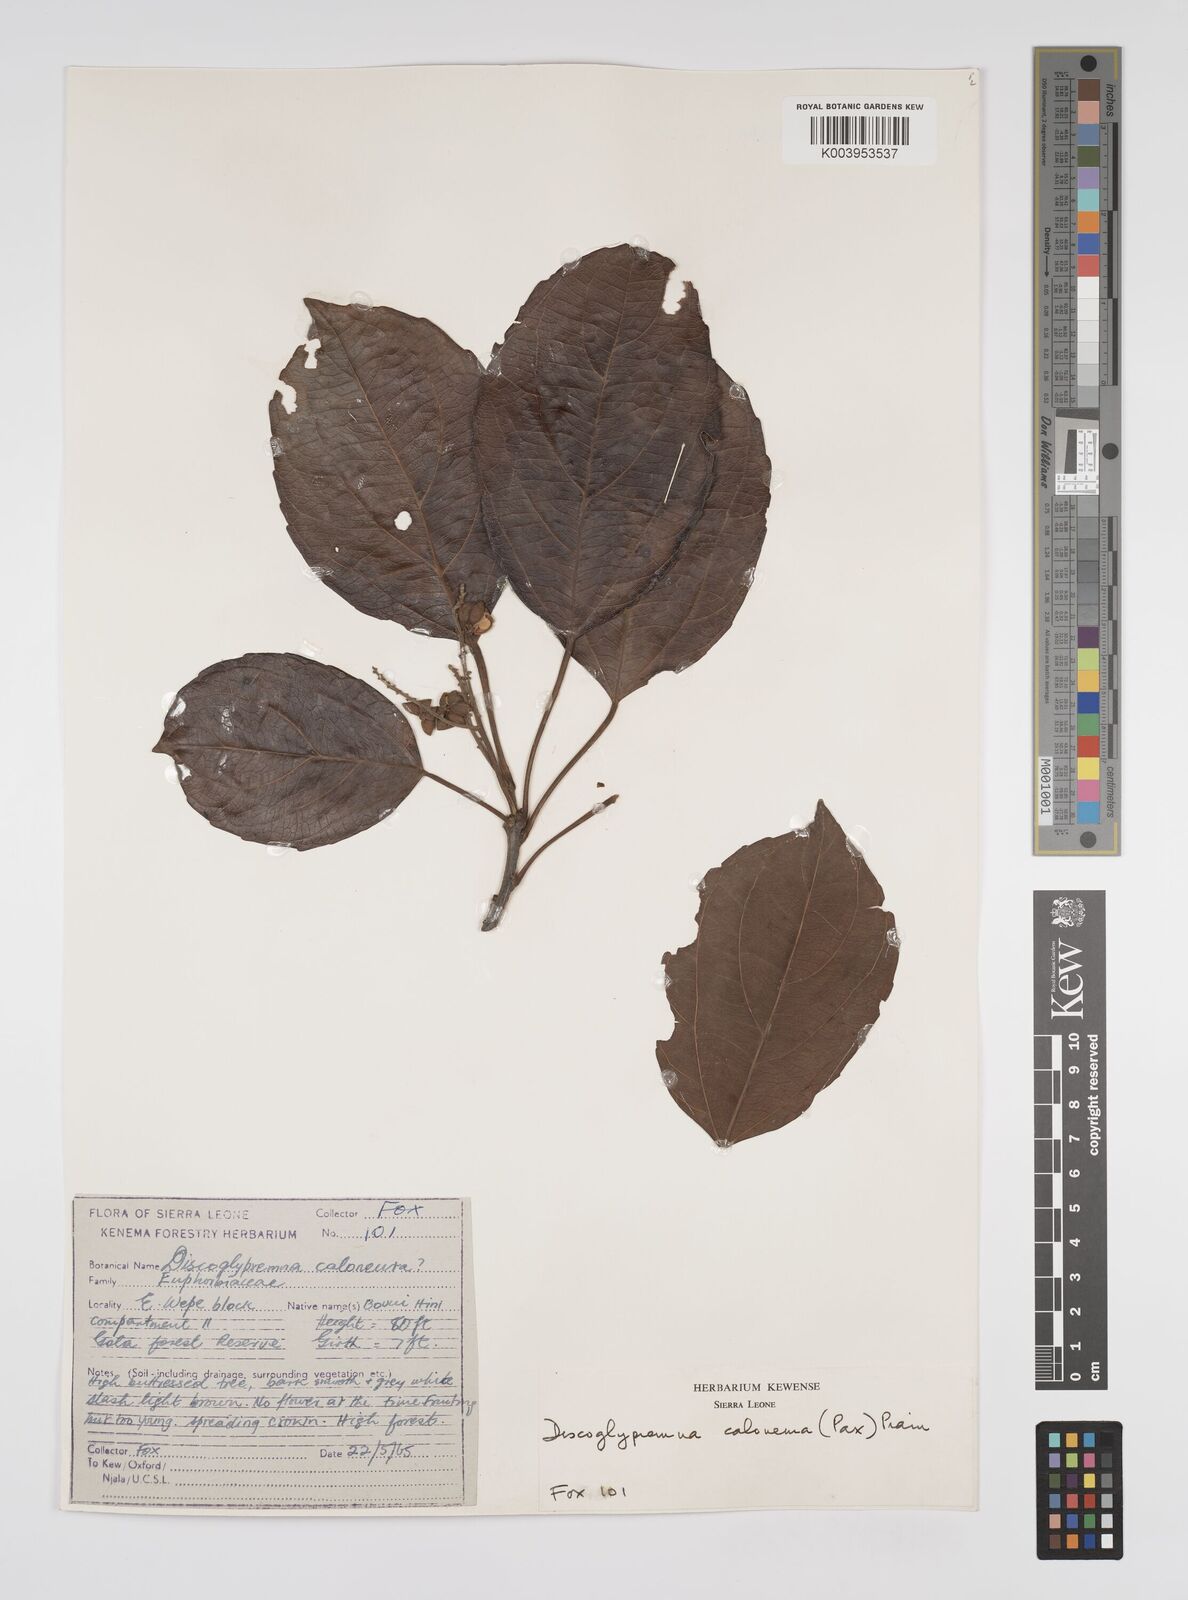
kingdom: Plantae
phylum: Tracheophyta
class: Magnoliopsida
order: Malpighiales
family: Euphorbiaceae
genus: Discoglypremna
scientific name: Discoglypremna caloneura
